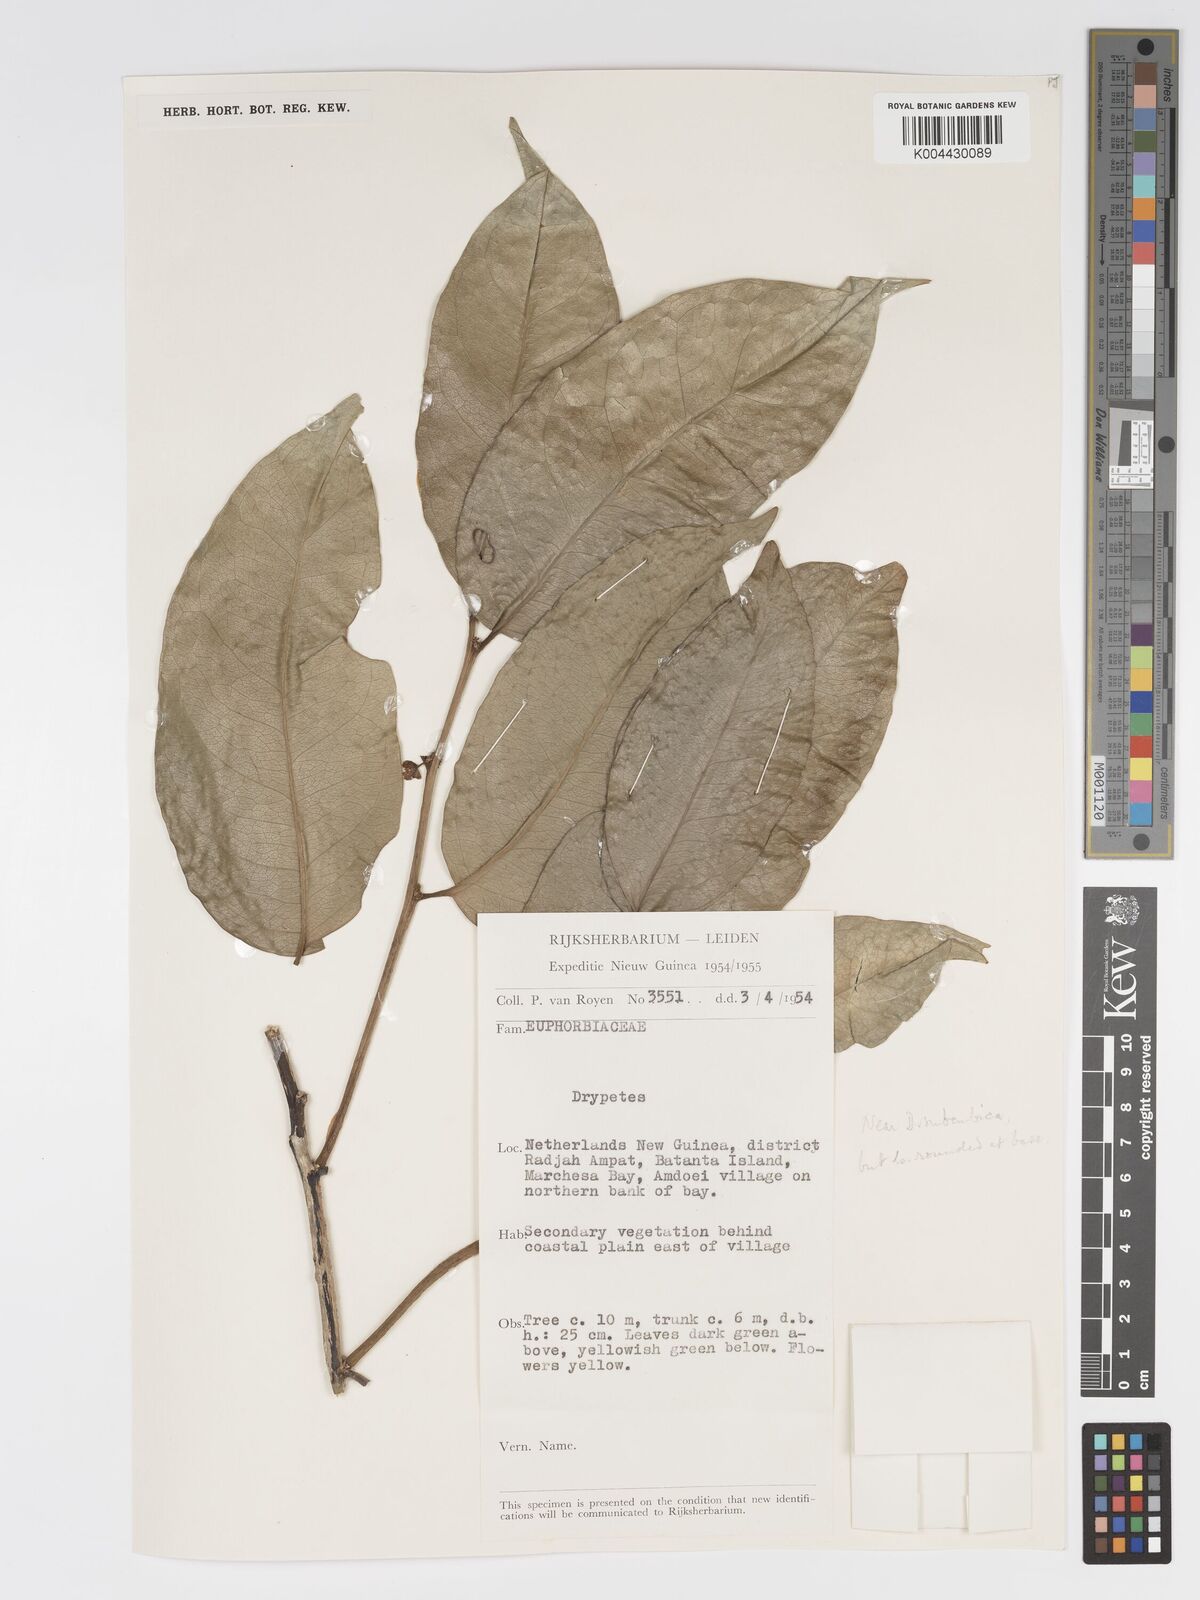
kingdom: Plantae
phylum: Tracheophyta
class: Magnoliopsida
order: Malpighiales
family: Putranjivaceae
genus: Drypetes
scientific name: Drypetes subcubica
